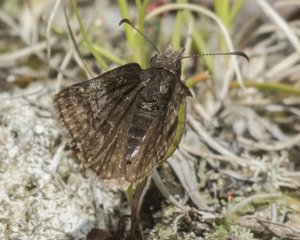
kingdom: Animalia
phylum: Arthropoda
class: Insecta
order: Lepidoptera
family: Hesperiidae
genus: Erynnis
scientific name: Erynnis icelus
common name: Dreamy Duskywing
